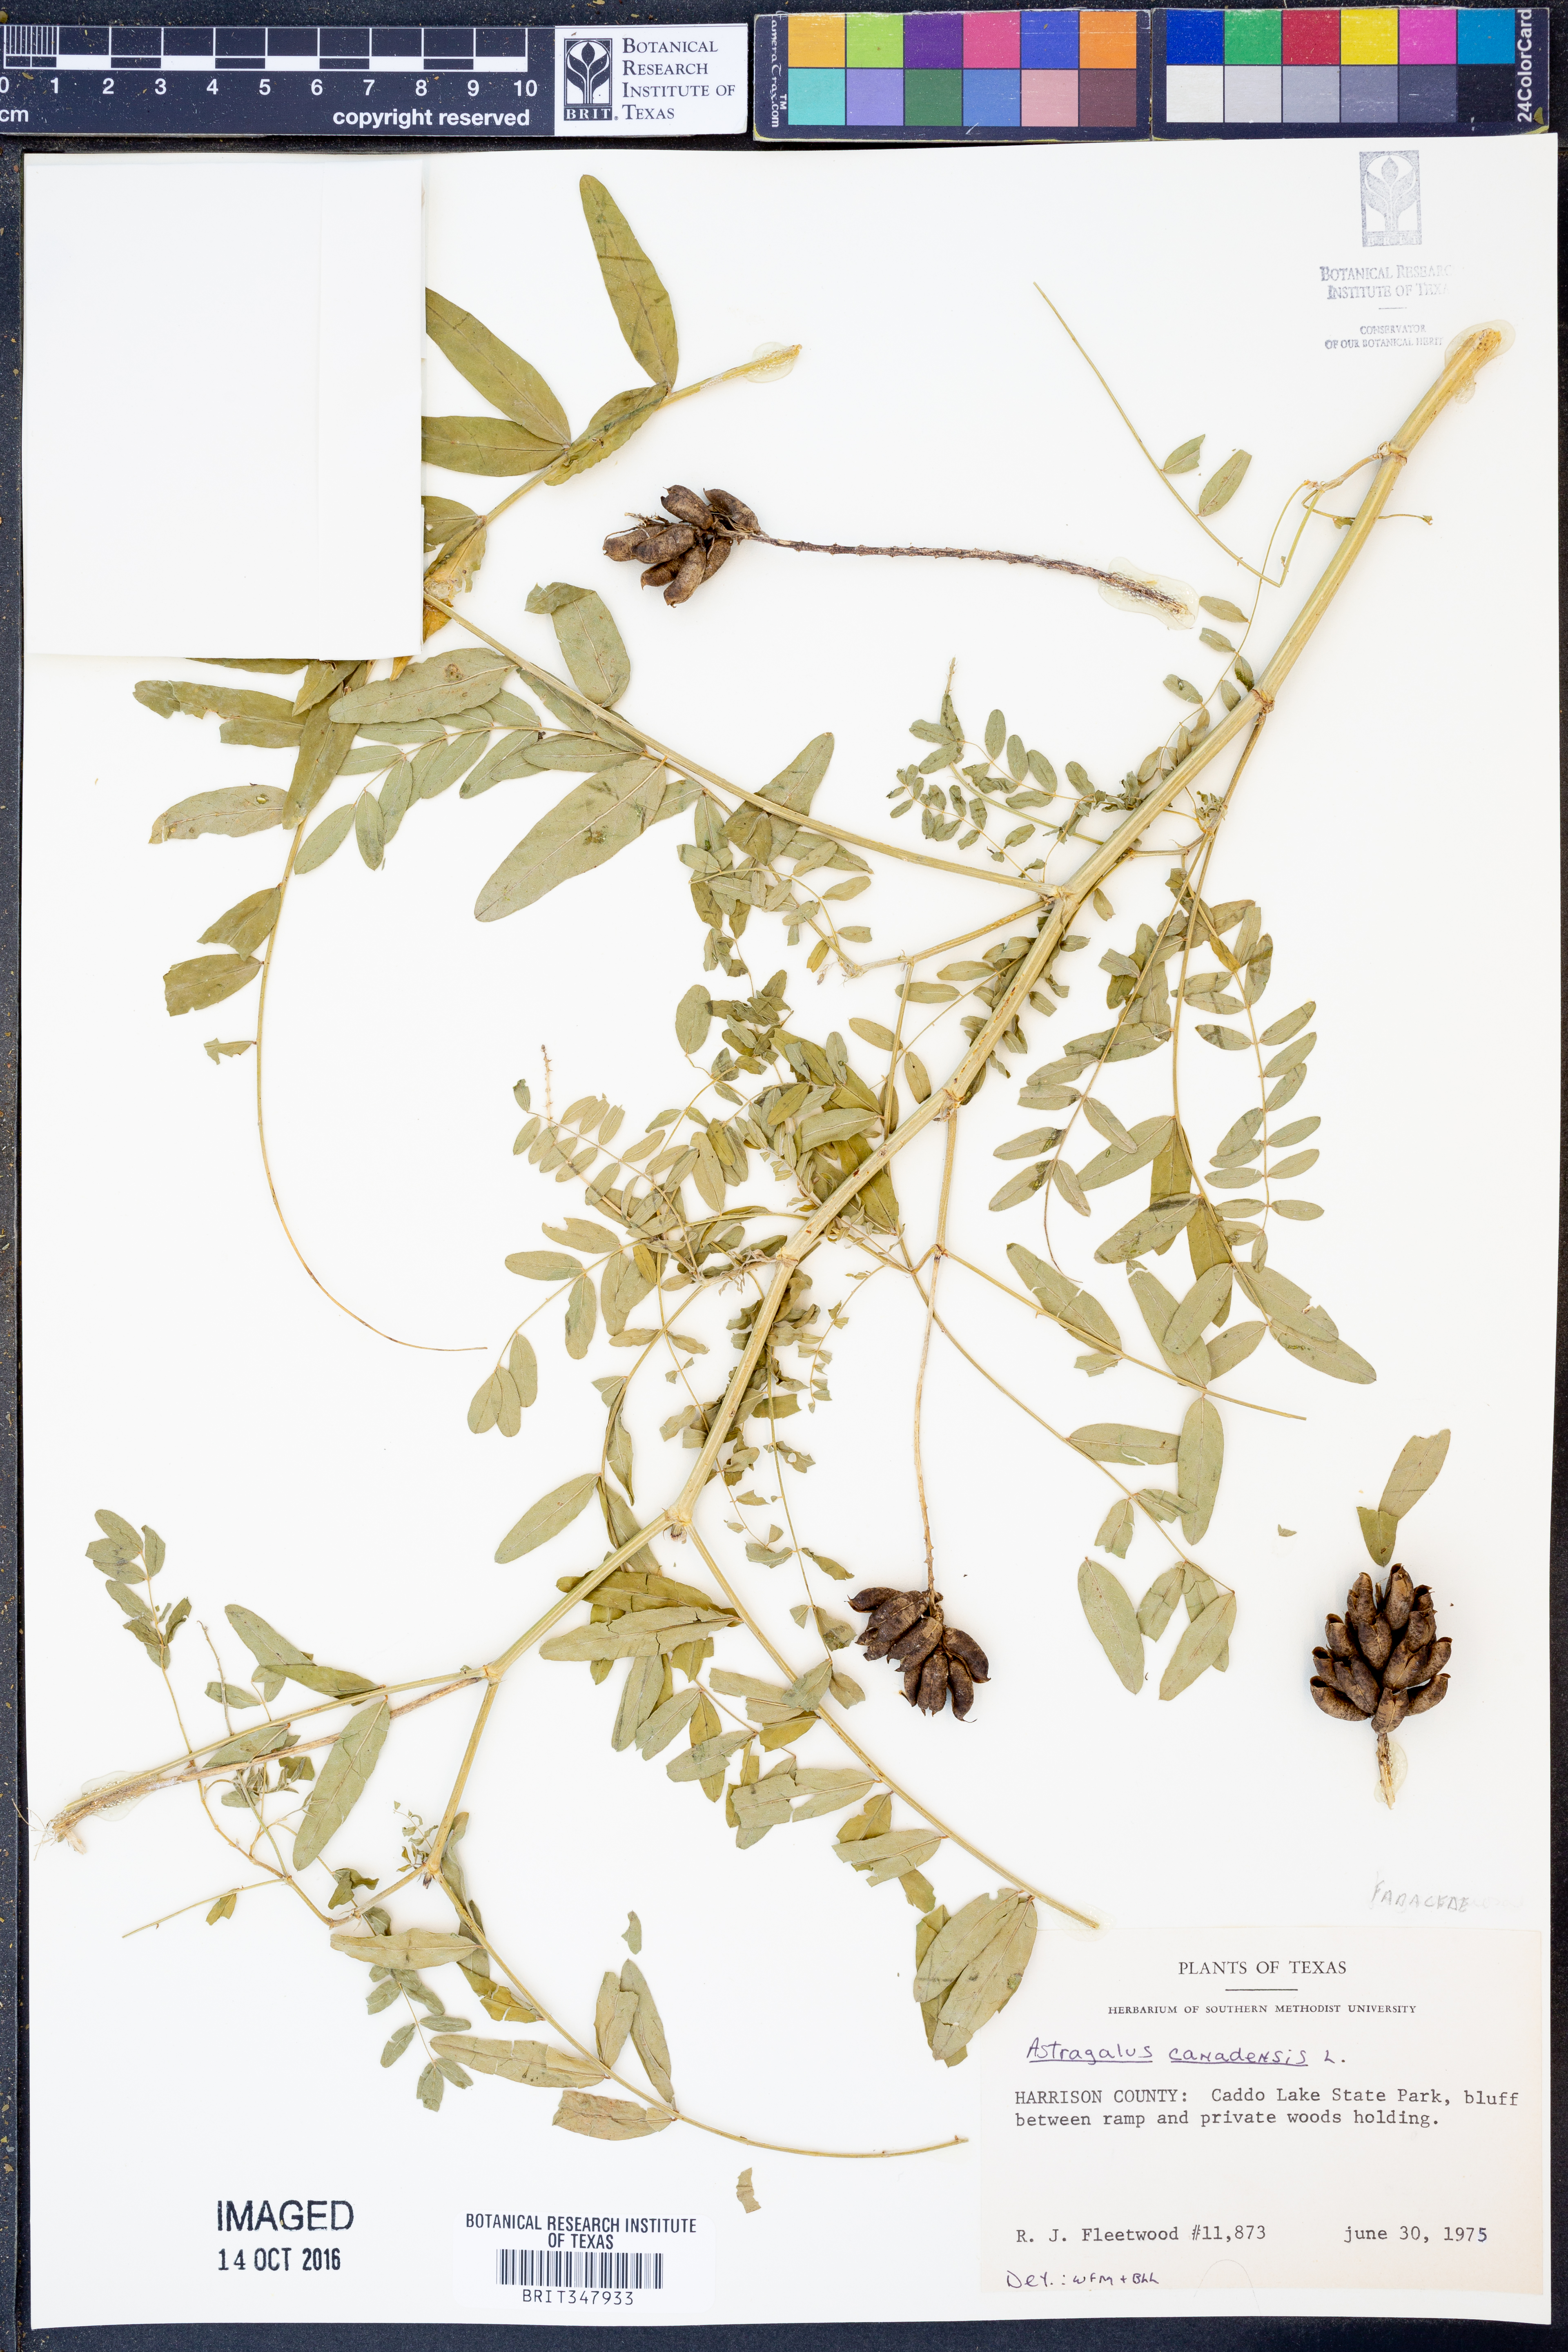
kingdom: Plantae
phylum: Tracheophyta
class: Magnoliopsida
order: Fabales
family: Fabaceae
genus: Astragalus
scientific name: Astragalus canadensis
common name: Canada milk-vetch
